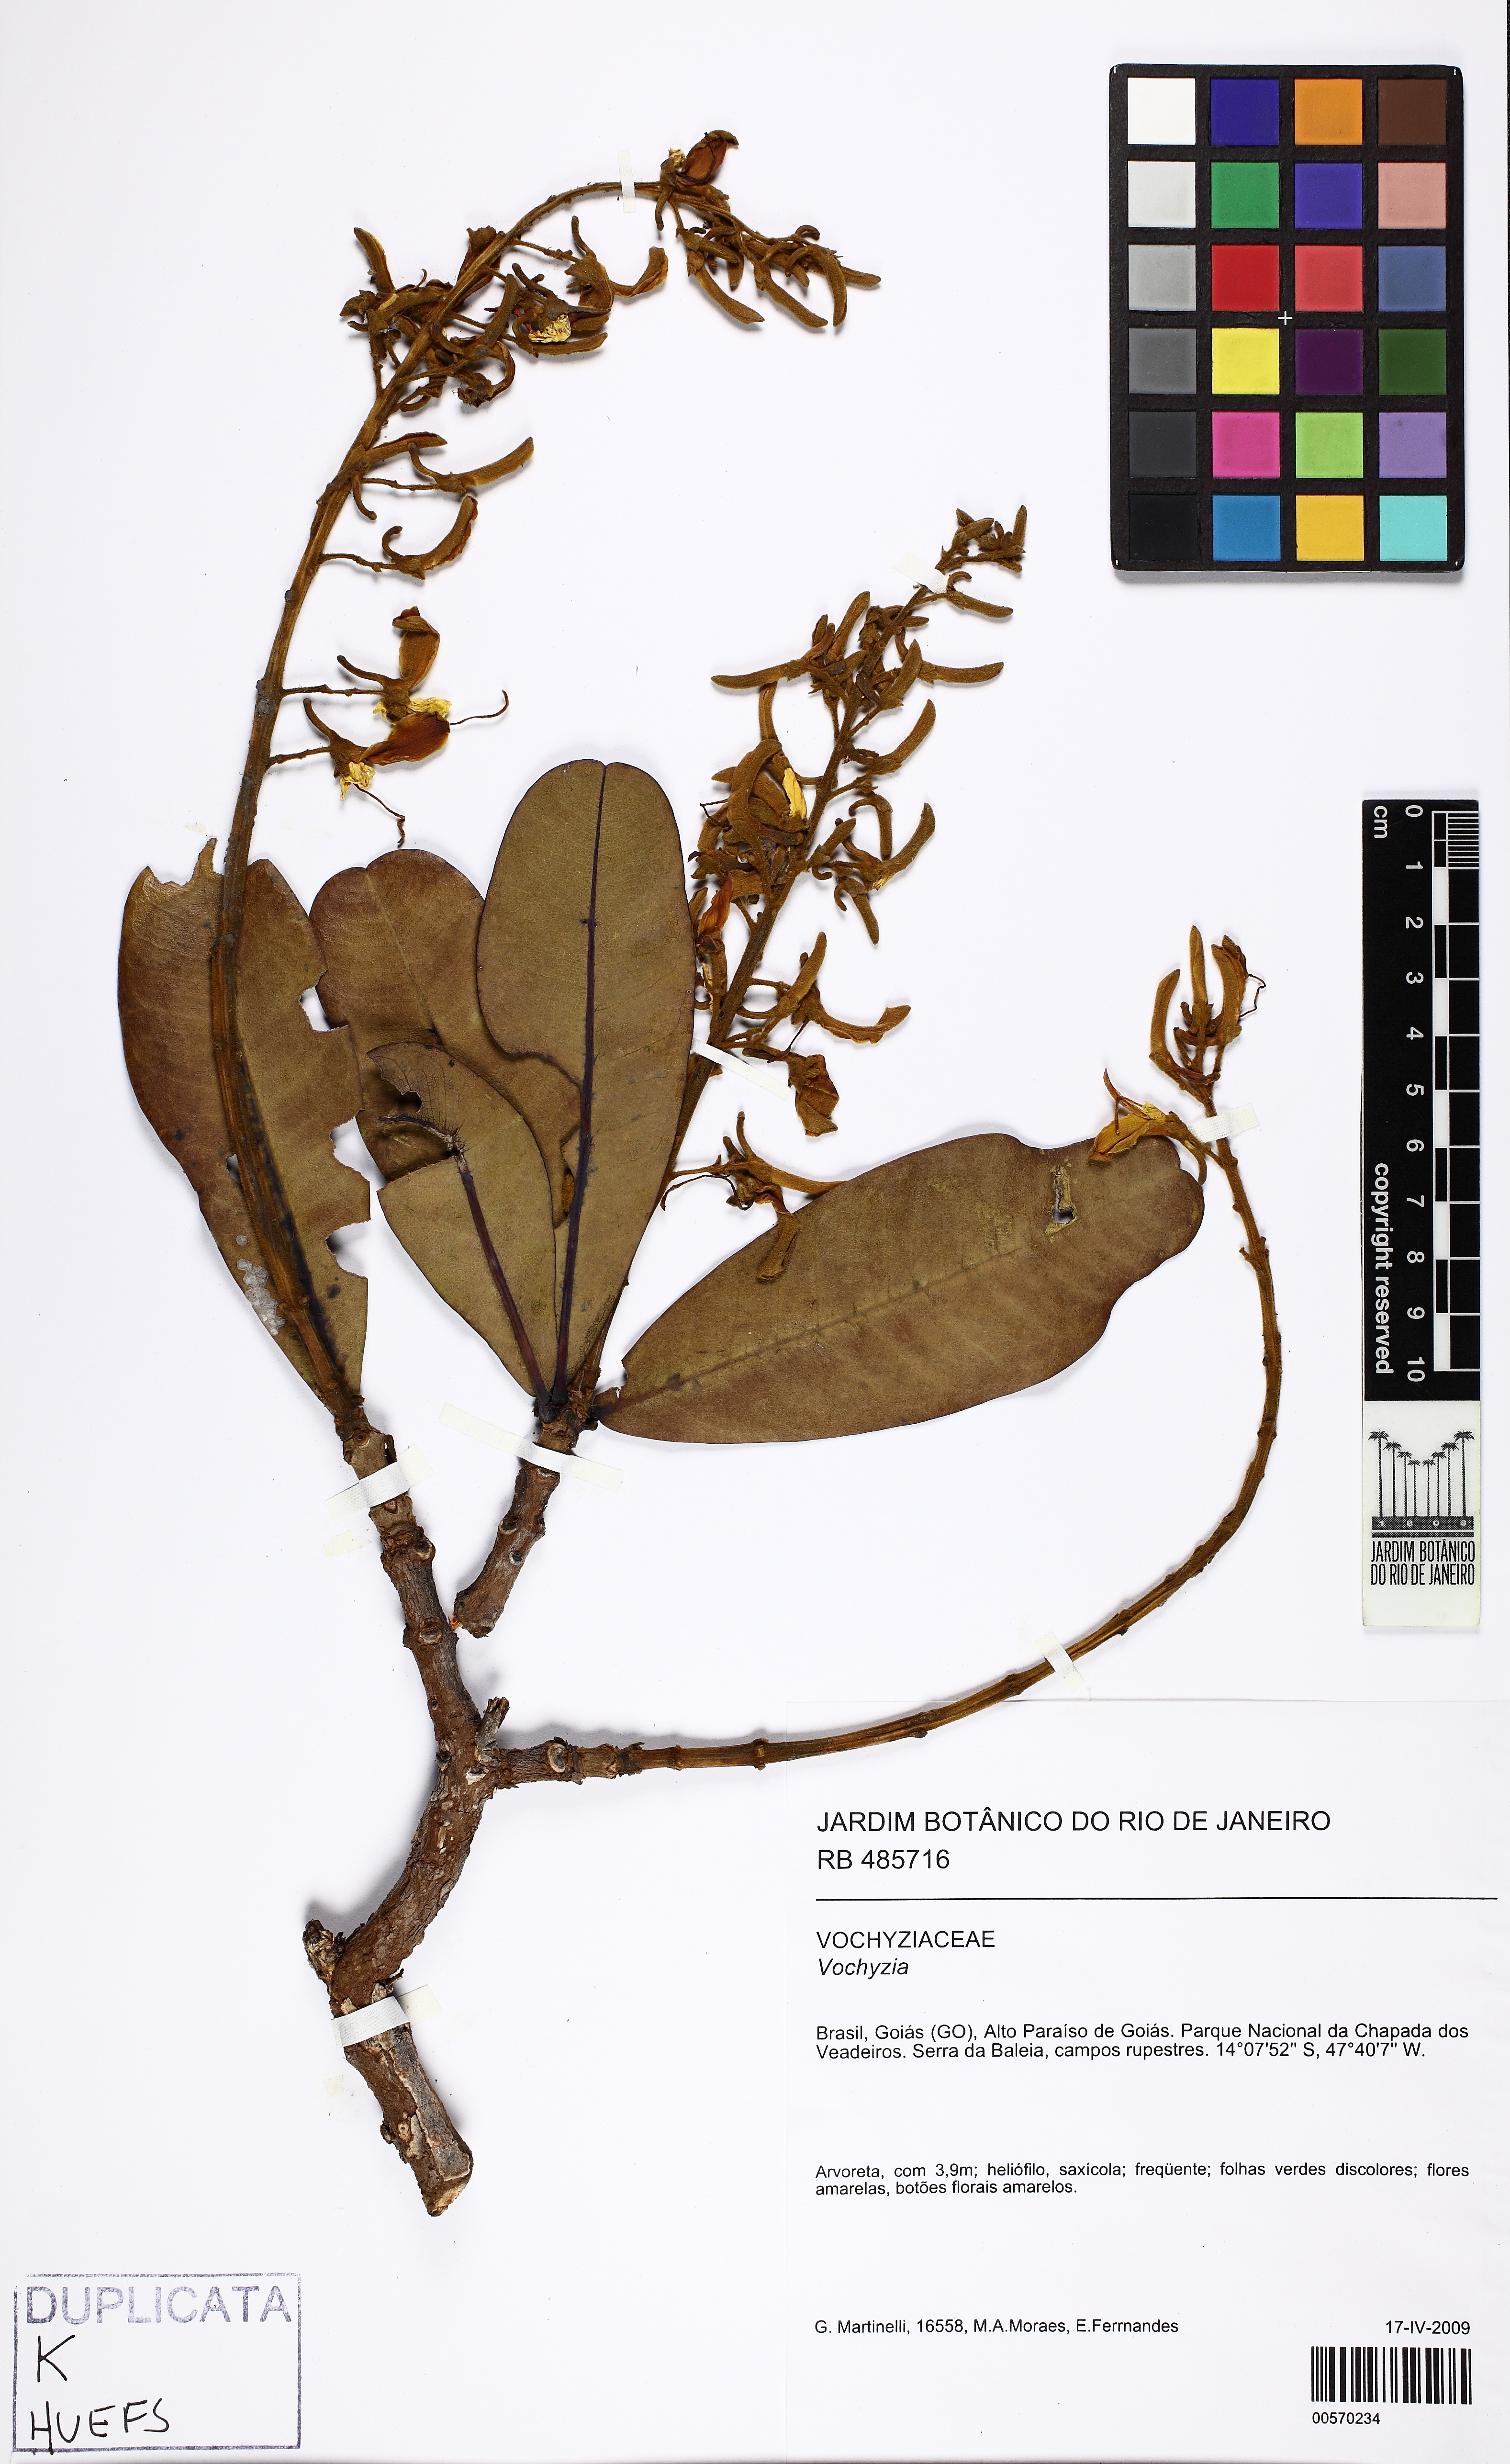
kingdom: Plantae
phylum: Tracheophyta
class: Magnoliopsida
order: Myrtales
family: Vochysiaceae
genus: Vochysia
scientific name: Vochysia
